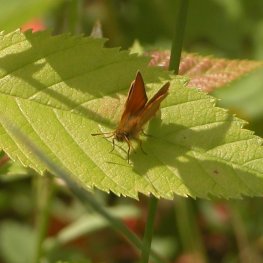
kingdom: Animalia
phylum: Arthropoda
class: Insecta
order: Lepidoptera
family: Hesperiidae
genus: Thymelicus
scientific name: Thymelicus lineola
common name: European Skipper
